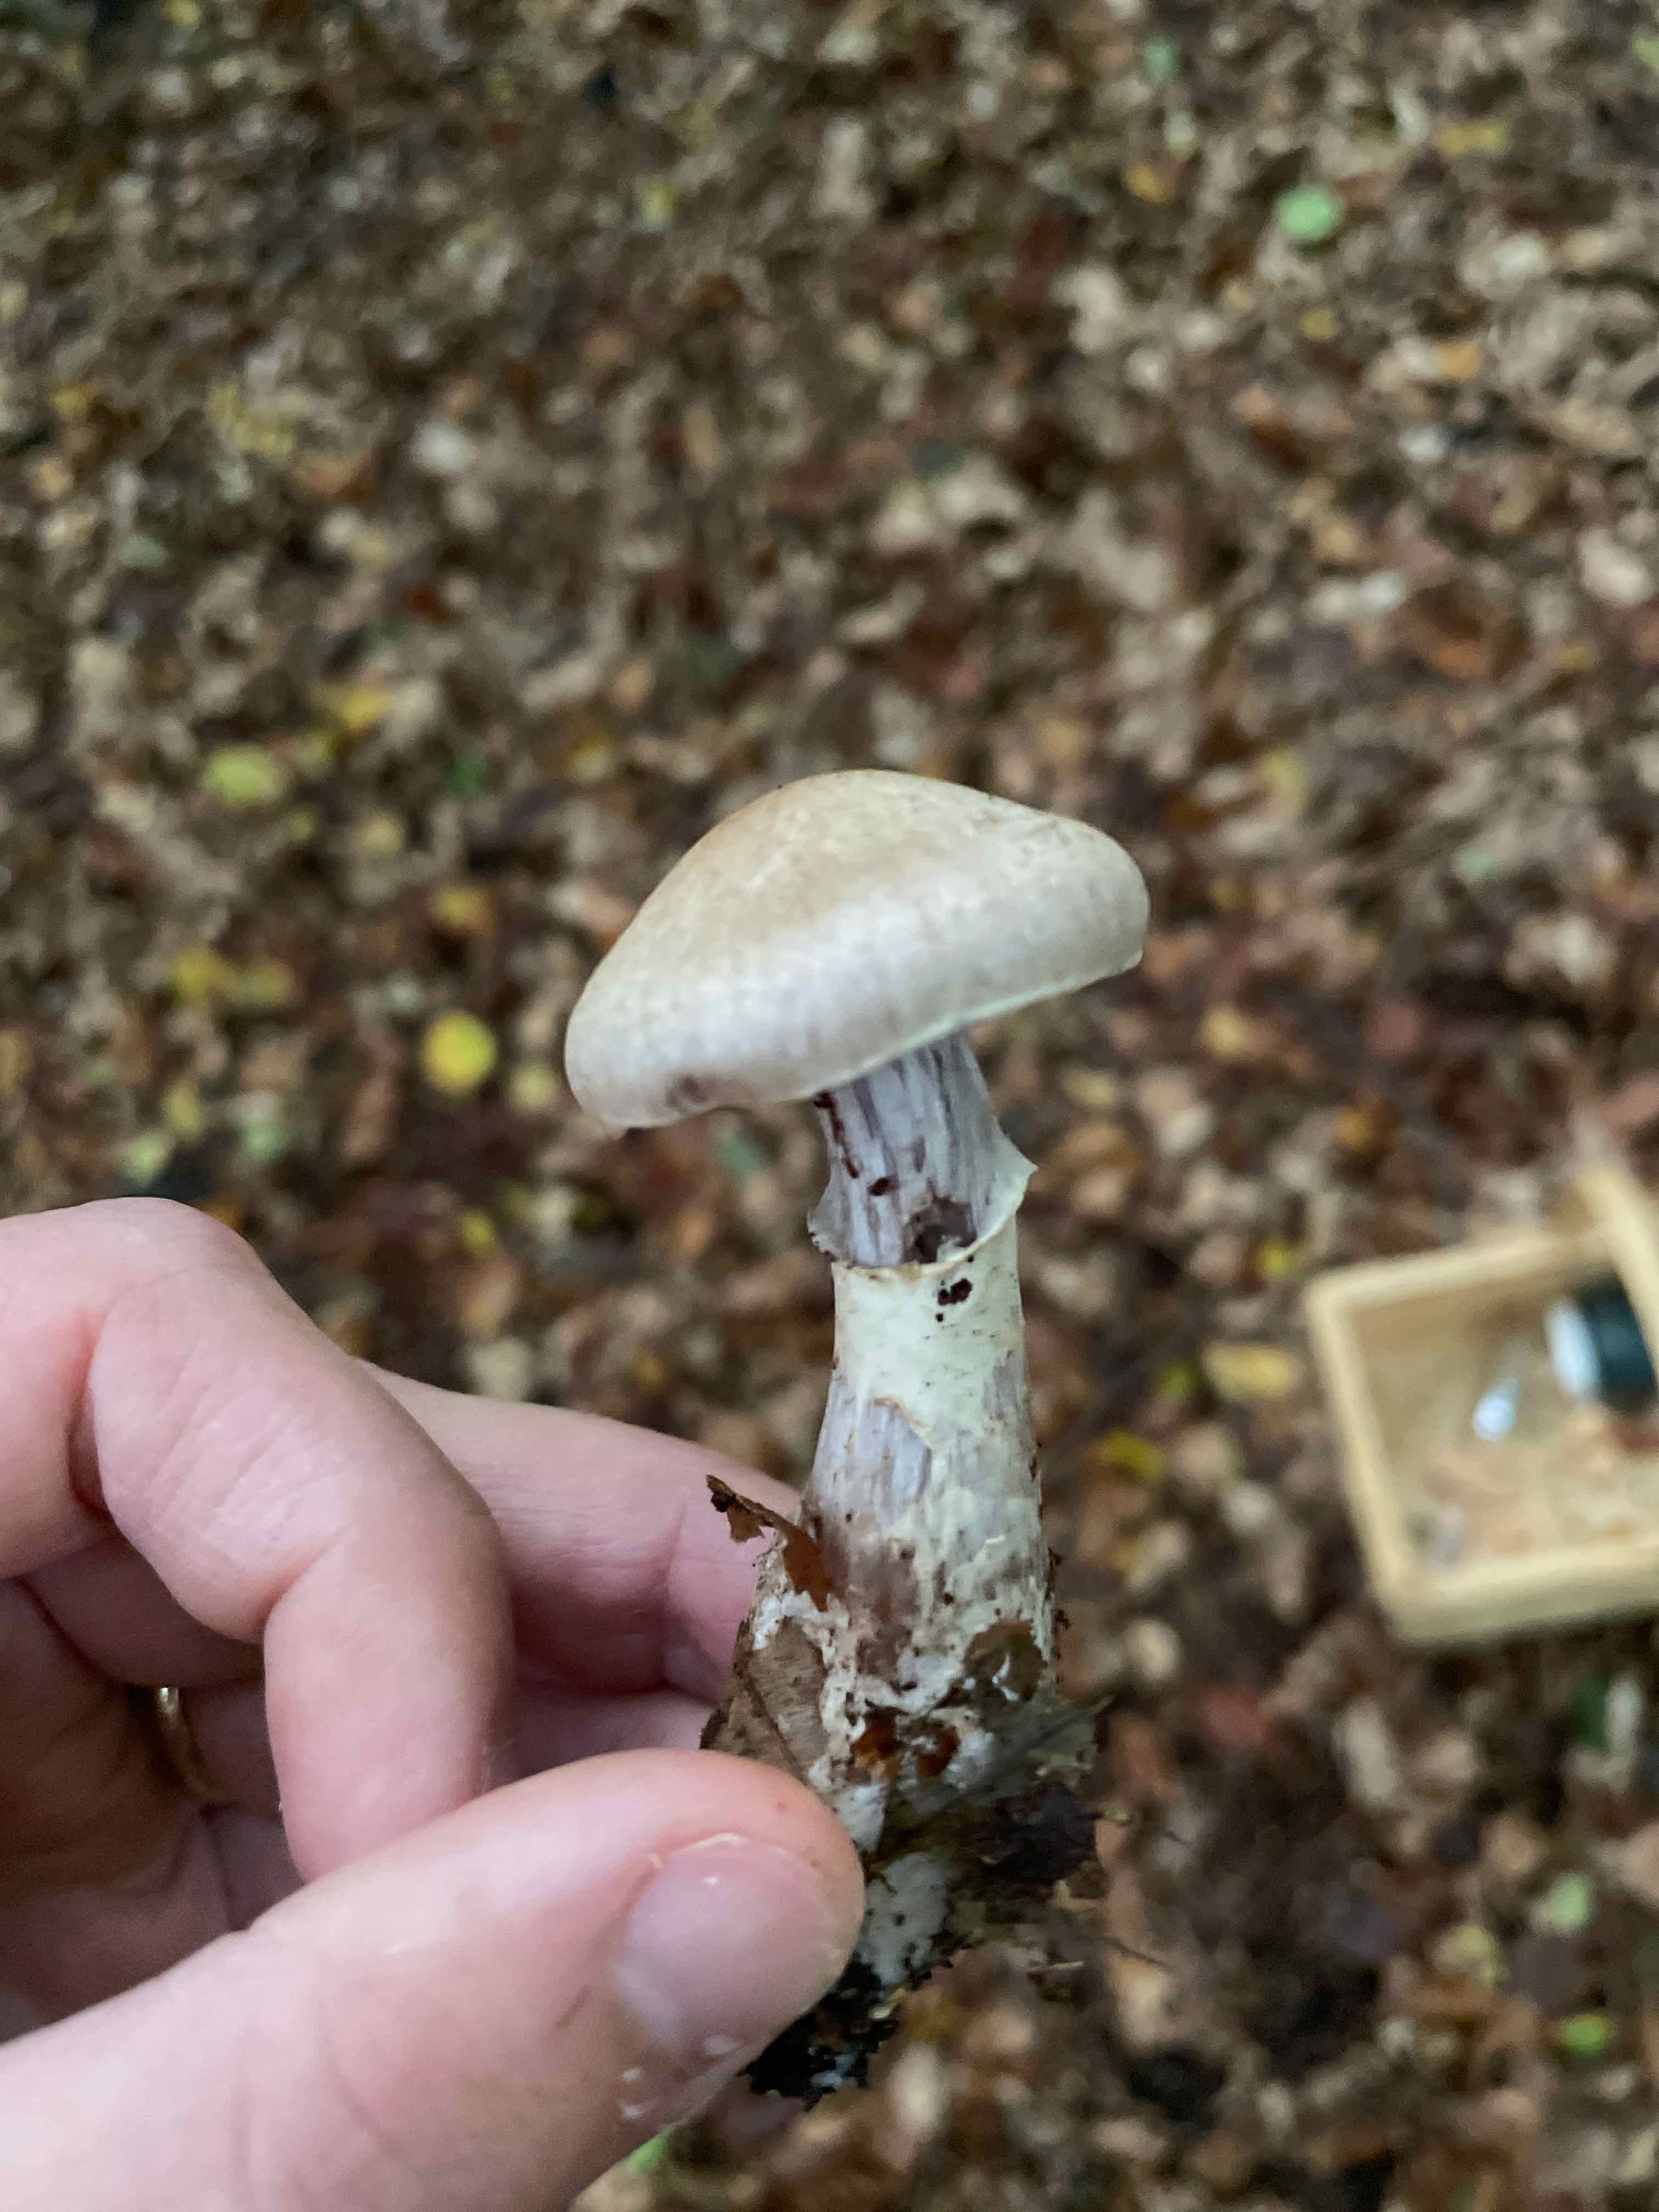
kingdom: Fungi
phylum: Basidiomycota
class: Agaricomycetes
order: Agaricales
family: Cortinariaceae
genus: Cortinarius
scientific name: Cortinarius torvus
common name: champignonagtig slørhat
